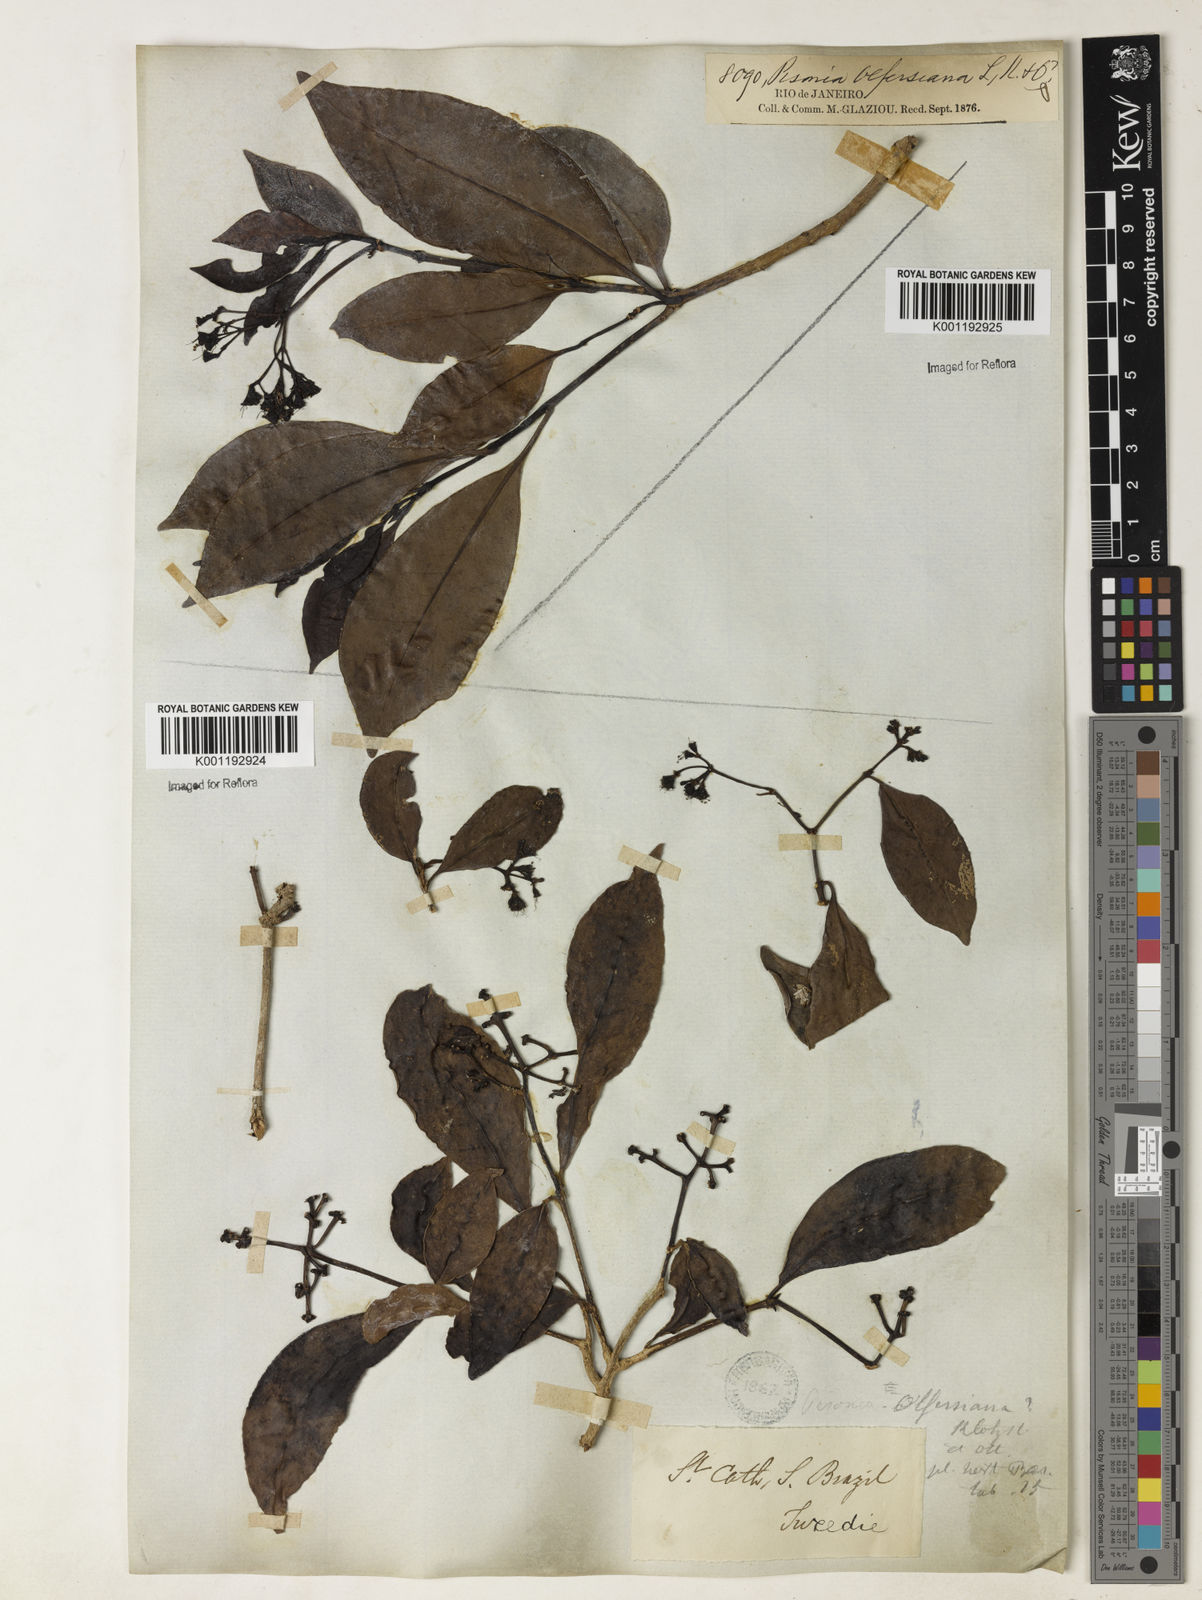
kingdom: Plantae
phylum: Tracheophyta
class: Magnoliopsida
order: Caryophyllales
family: Nyctaginaceae
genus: Guapira
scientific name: Guapira
